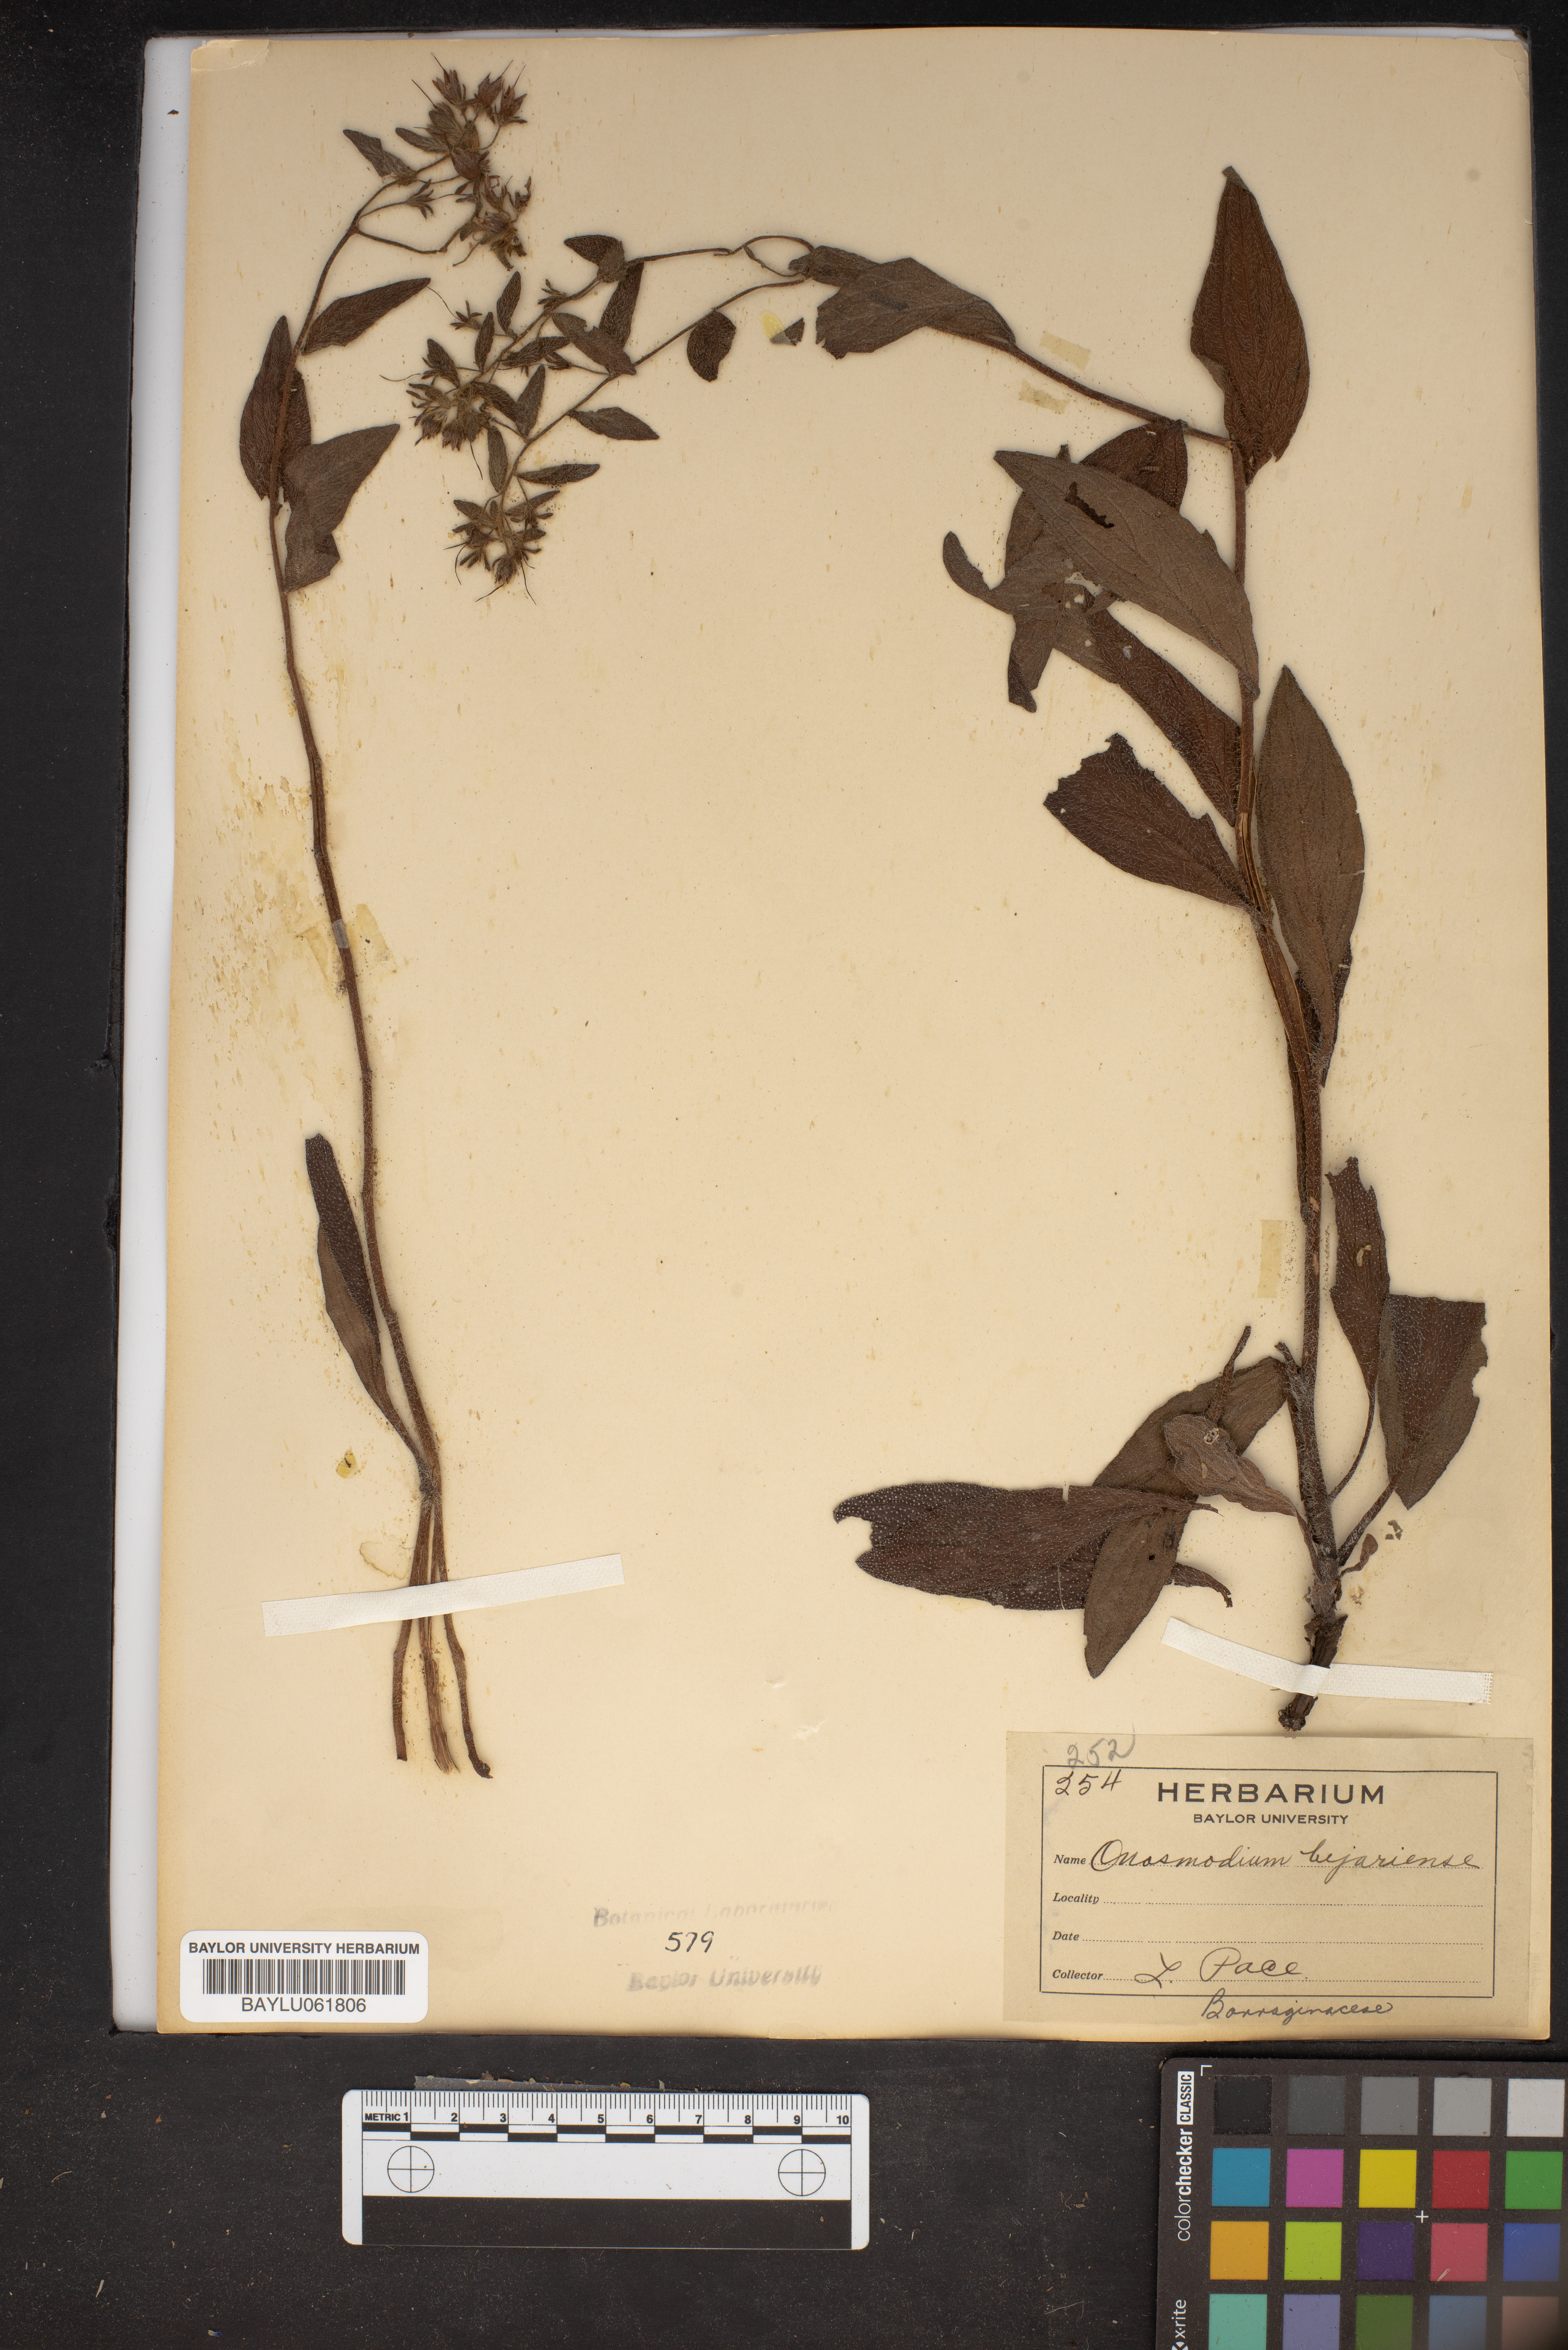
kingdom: Plantae
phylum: Tracheophyta
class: Magnoliopsida
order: Boraginales
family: Boraginaceae
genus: Lithospermum
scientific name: Lithospermum molle
